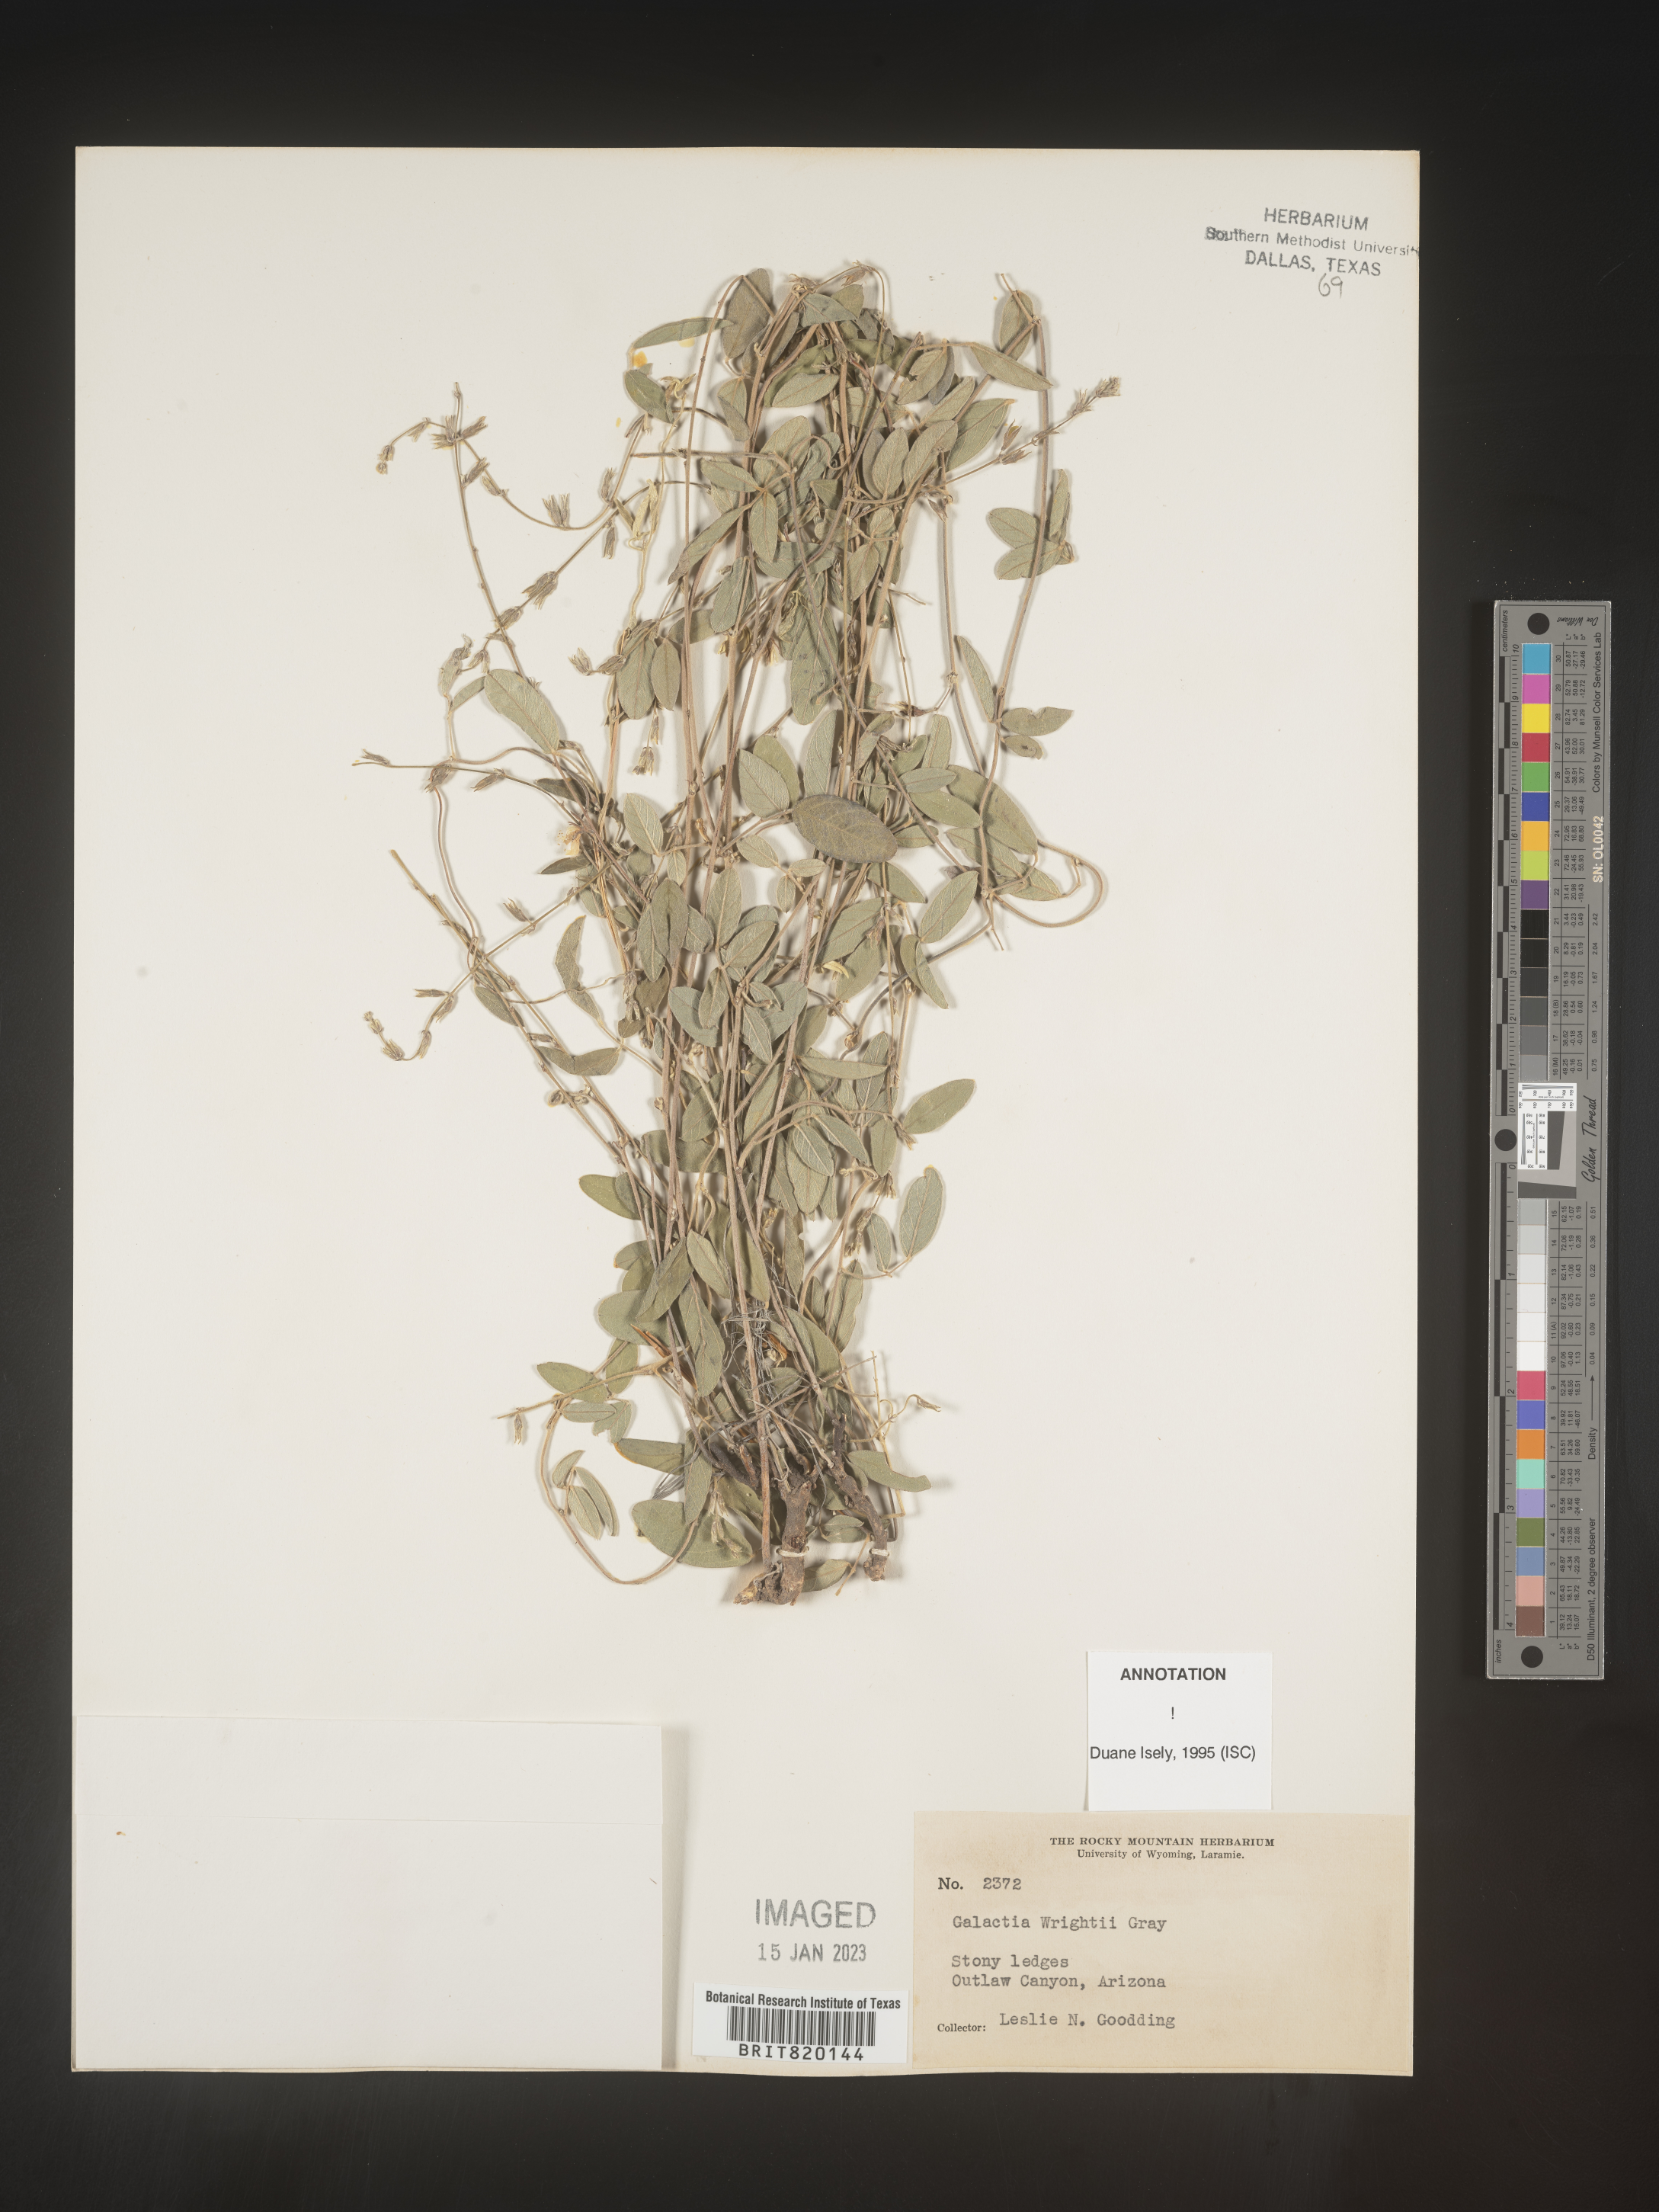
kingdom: Plantae
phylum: Tracheophyta
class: Magnoliopsida
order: Fabales
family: Fabaceae
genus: Galactia
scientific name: Galactia wrightii
